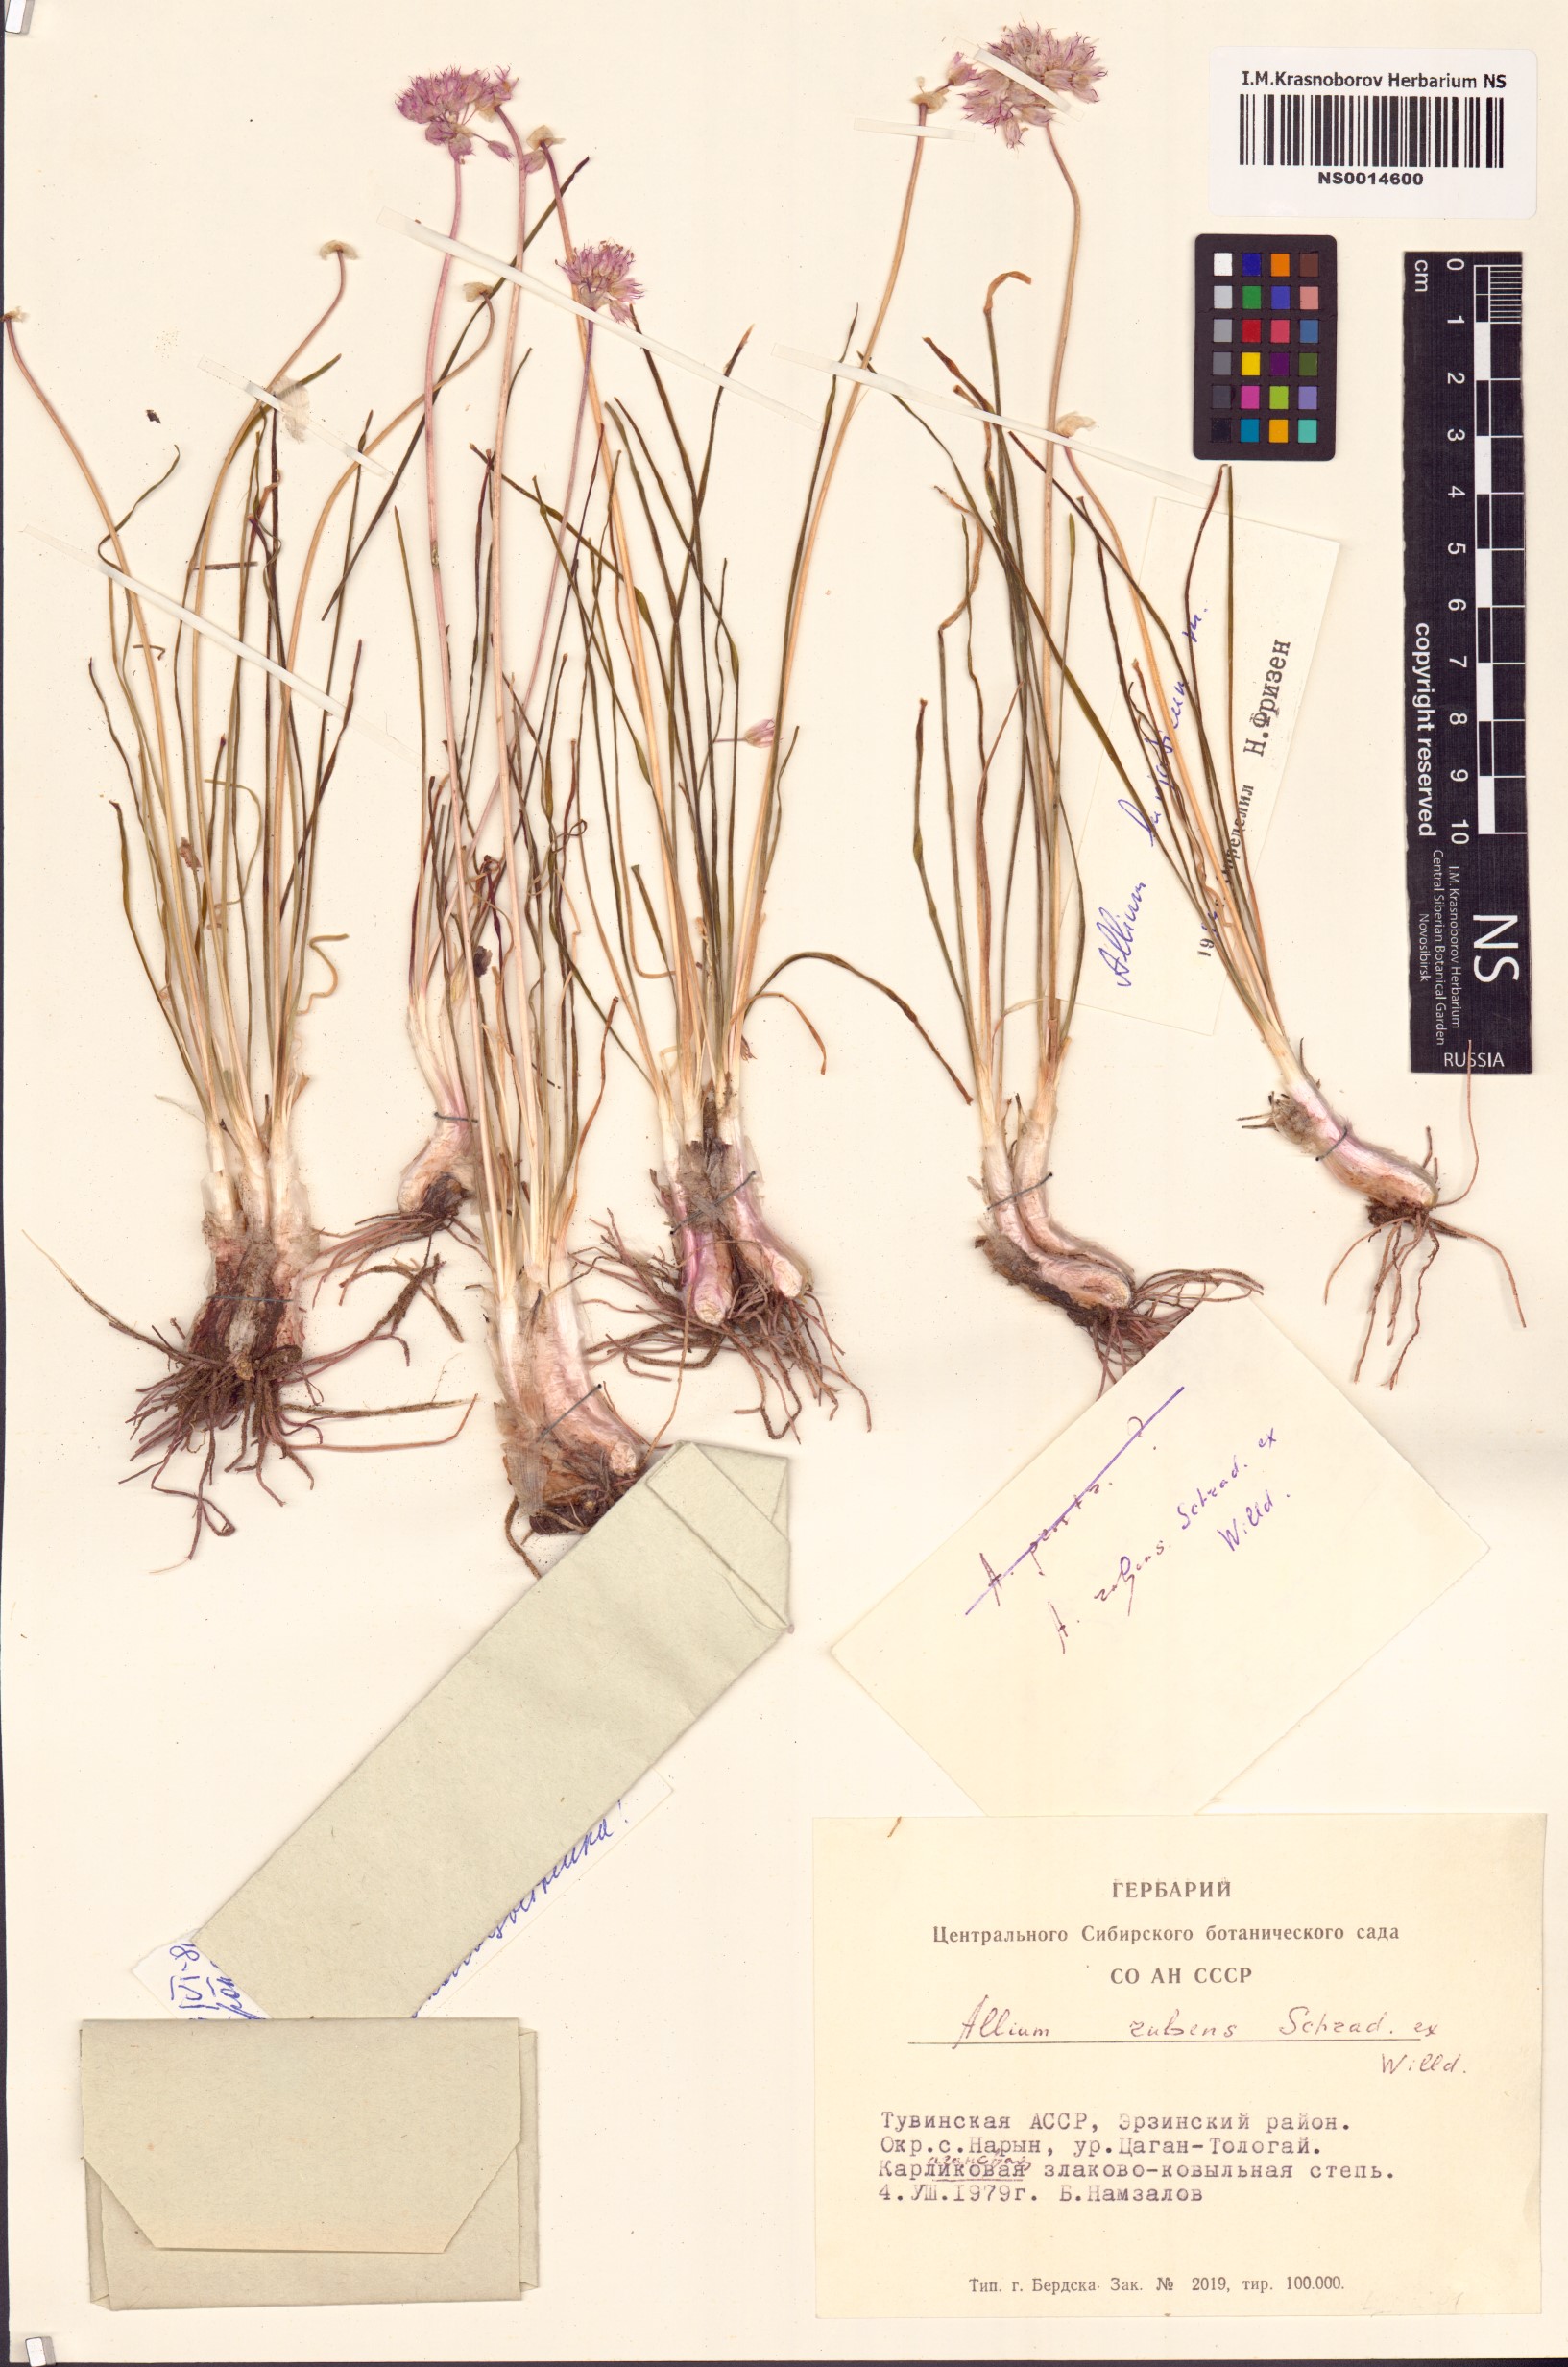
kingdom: Plantae
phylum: Tracheophyta
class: Liliopsida
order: Asparagales
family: Amaryllidaceae
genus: Allium
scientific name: Allium burjaticum
